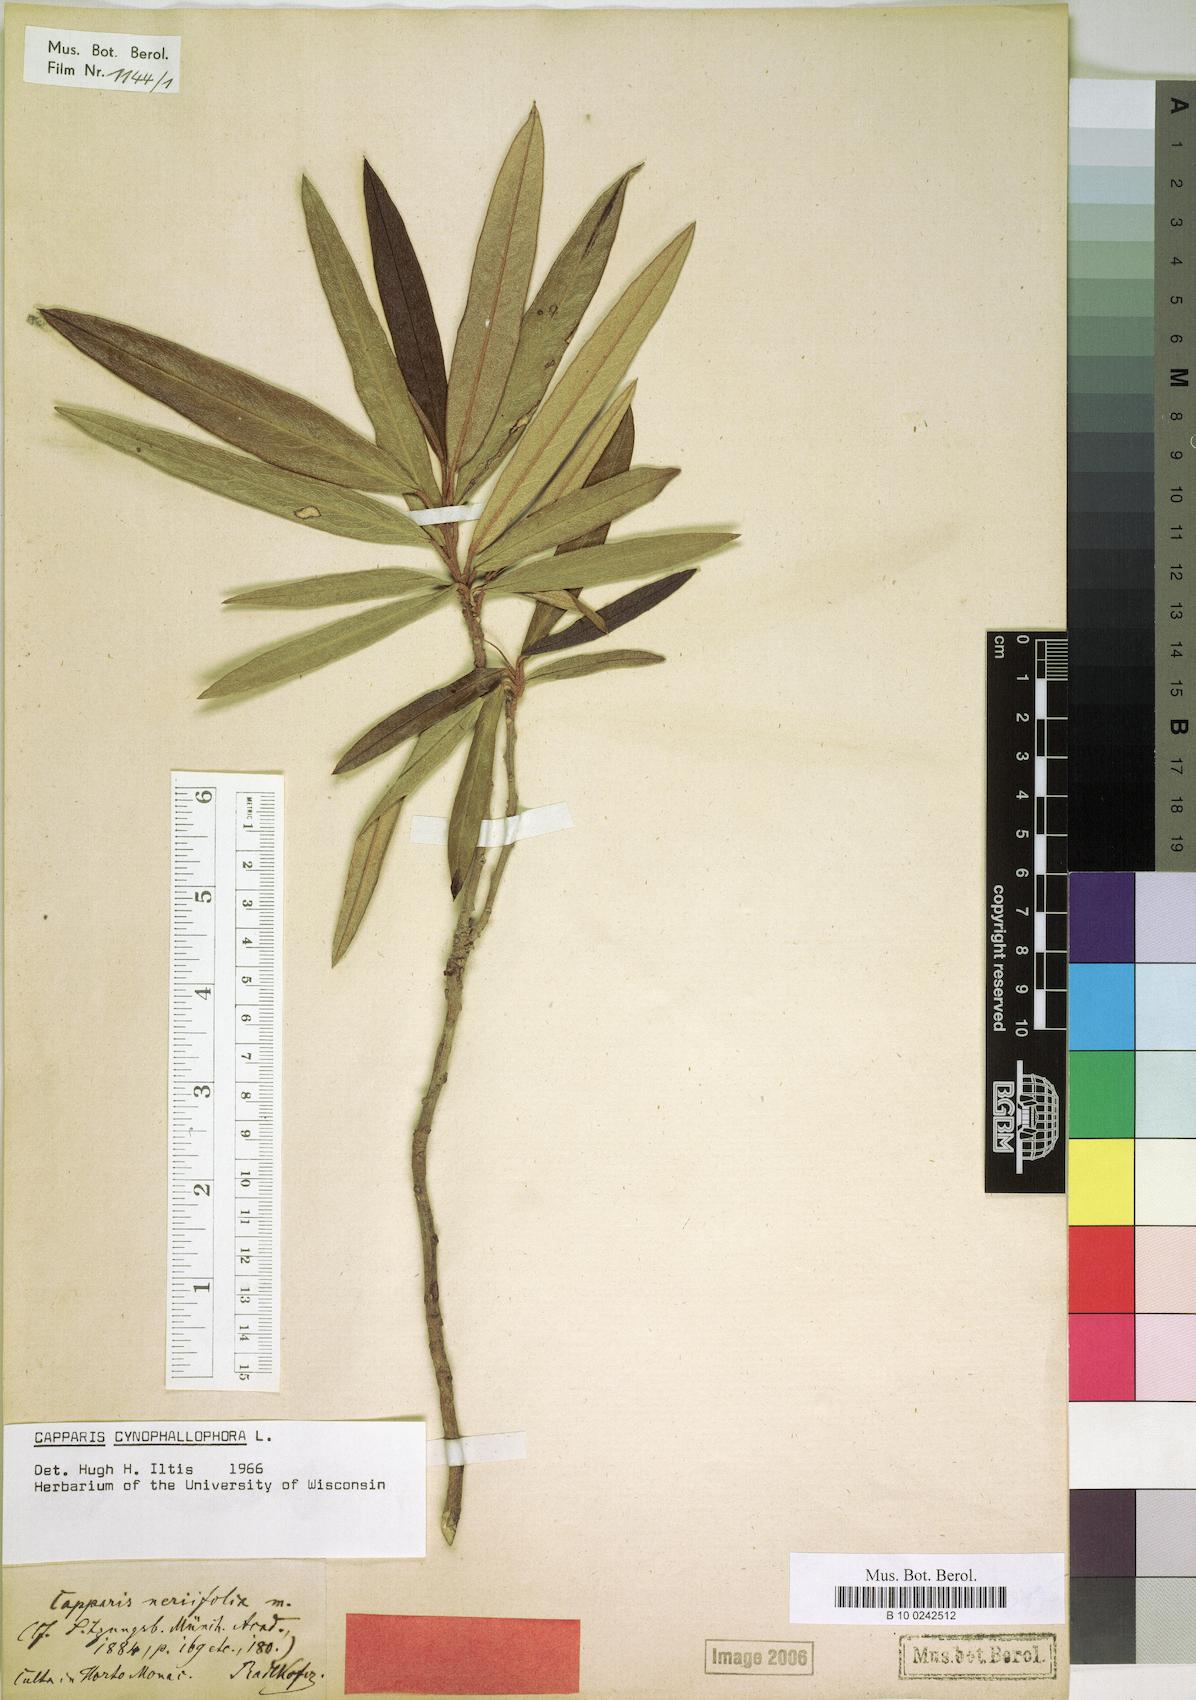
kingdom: Plantae
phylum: Tracheophyta
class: Magnoliopsida
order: Brassicales
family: Capparaceae
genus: Quadrella
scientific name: Quadrella cynophallophora
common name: Black willow
